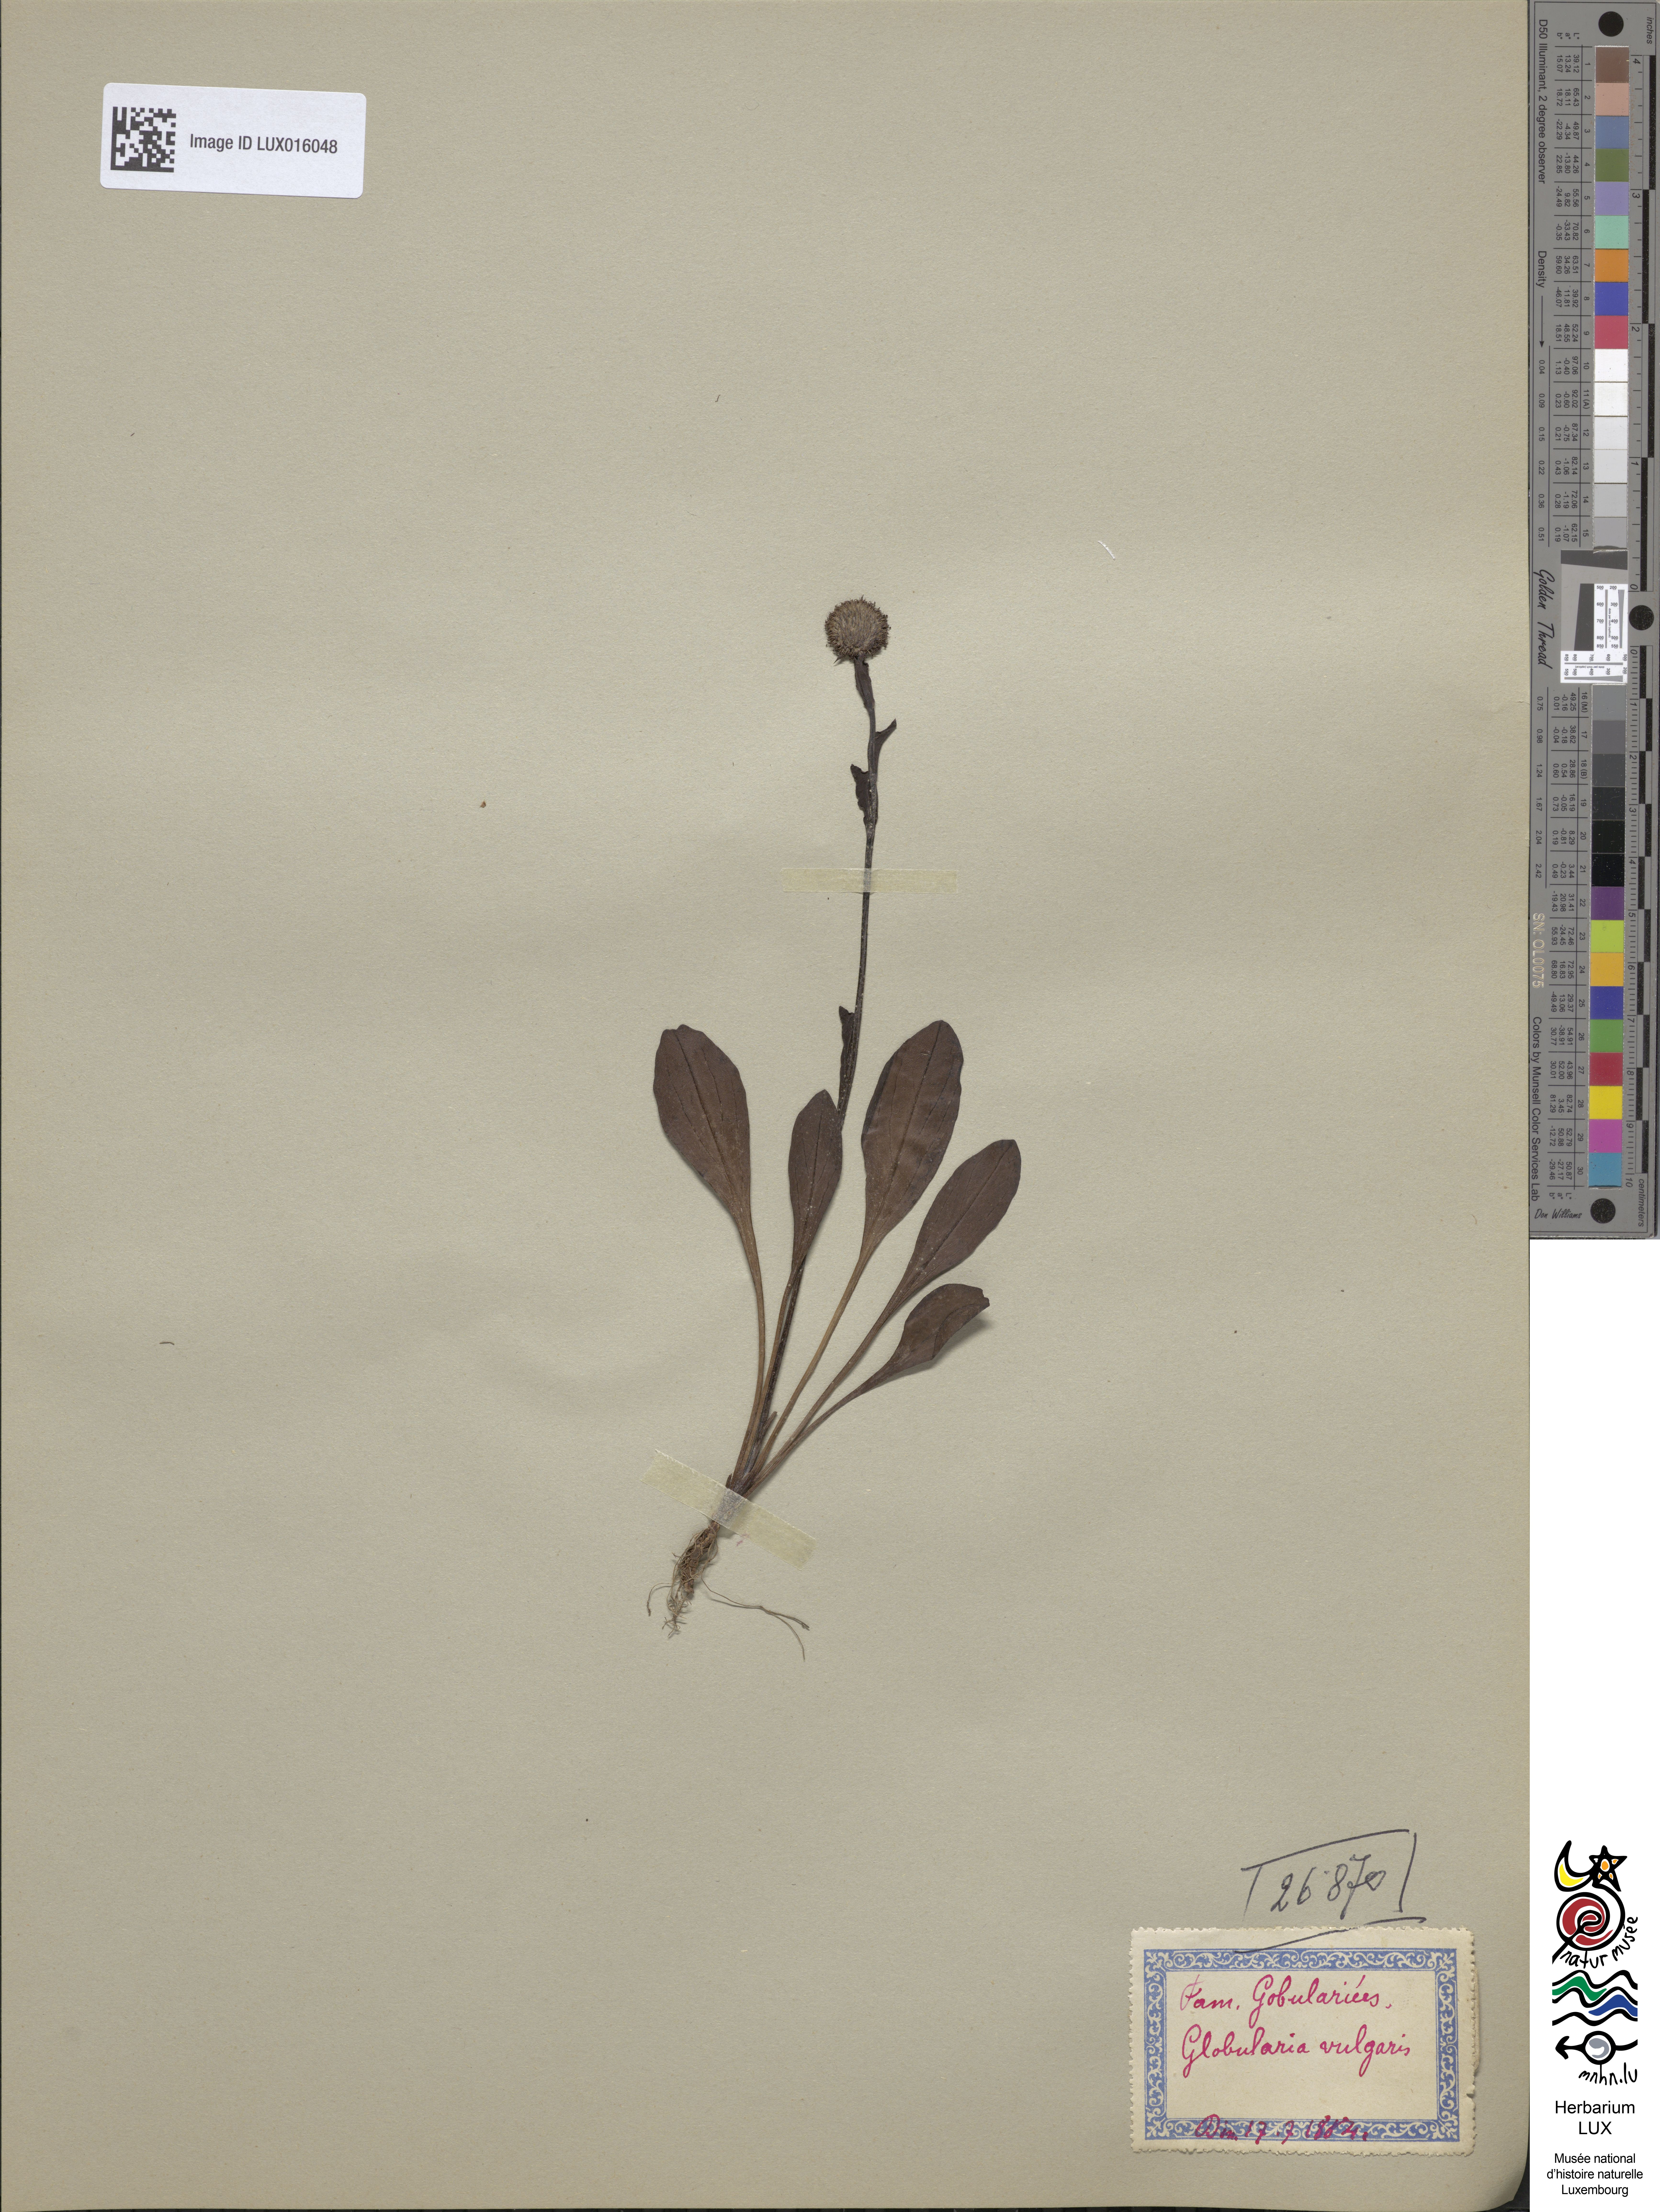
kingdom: Plantae
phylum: Tracheophyta
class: Magnoliopsida
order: Lamiales
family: Plantaginaceae
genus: Globularia
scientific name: Globularia bisnagarica
